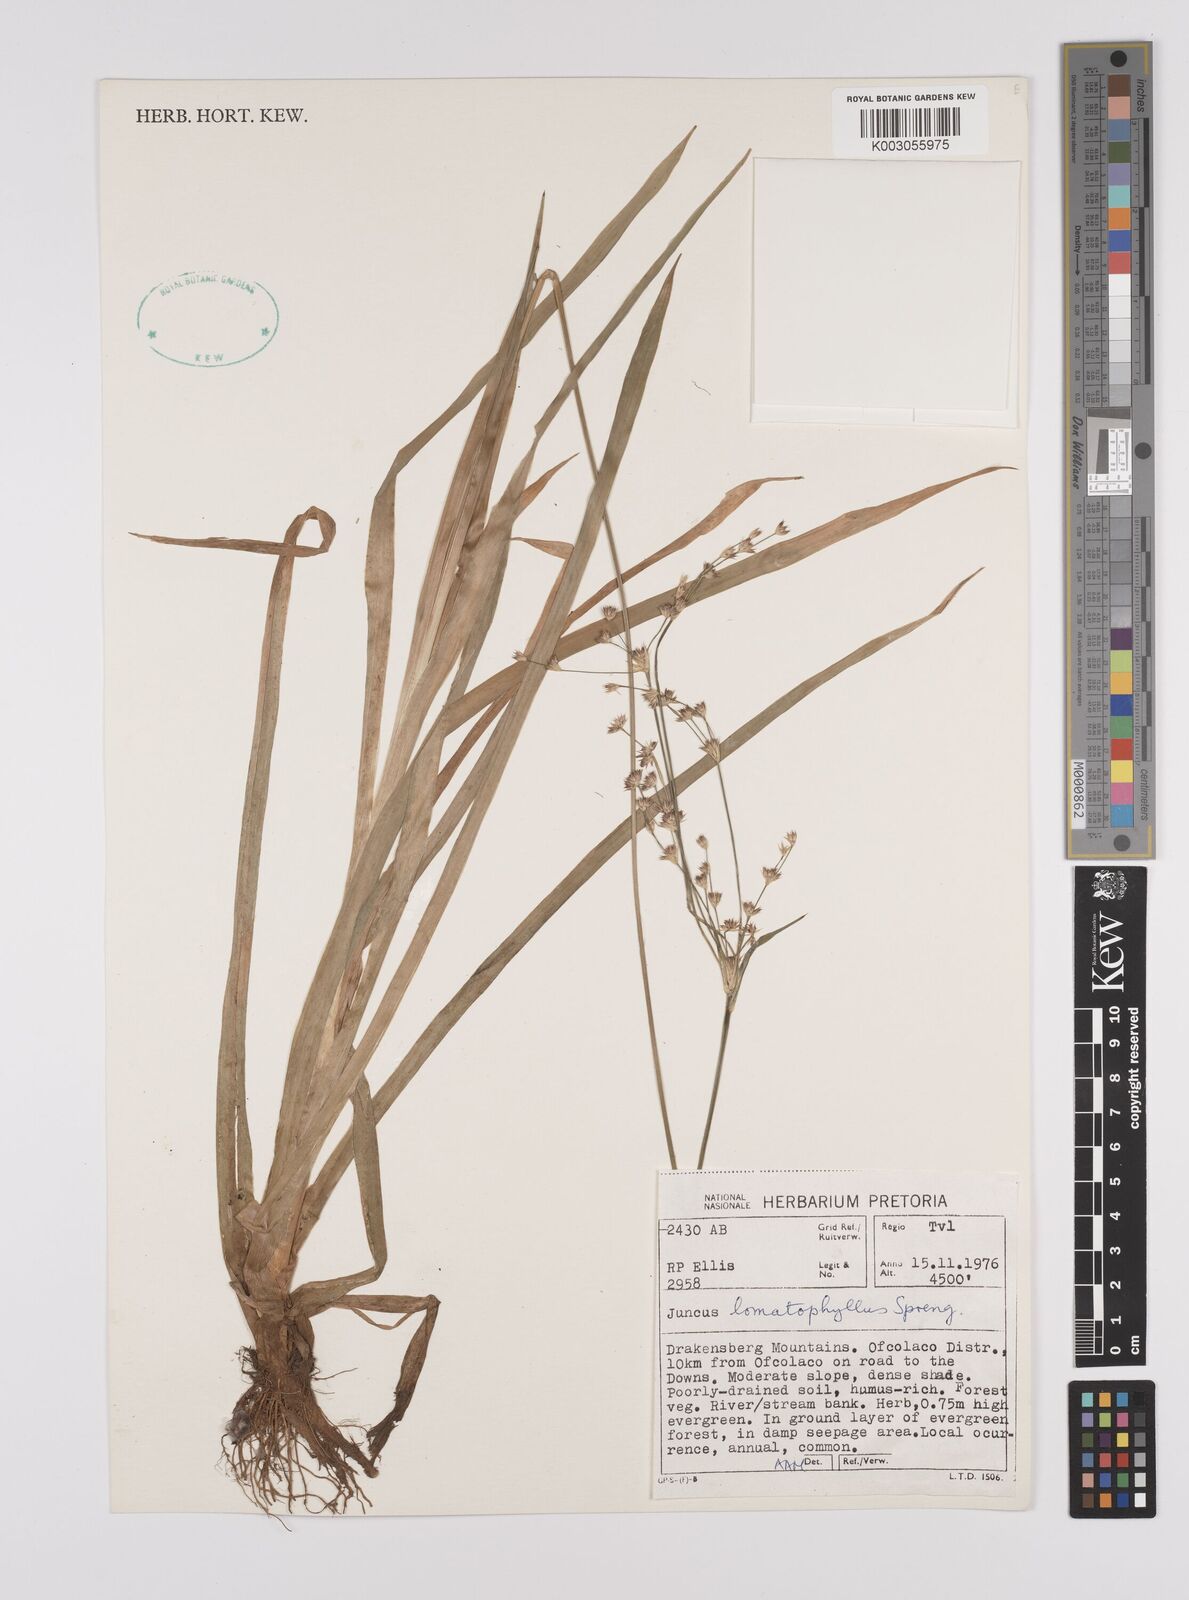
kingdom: Plantae
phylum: Tracheophyta
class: Liliopsida
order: Poales
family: Juncaceae
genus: Juncus
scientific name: Juncus lomatophyllus
